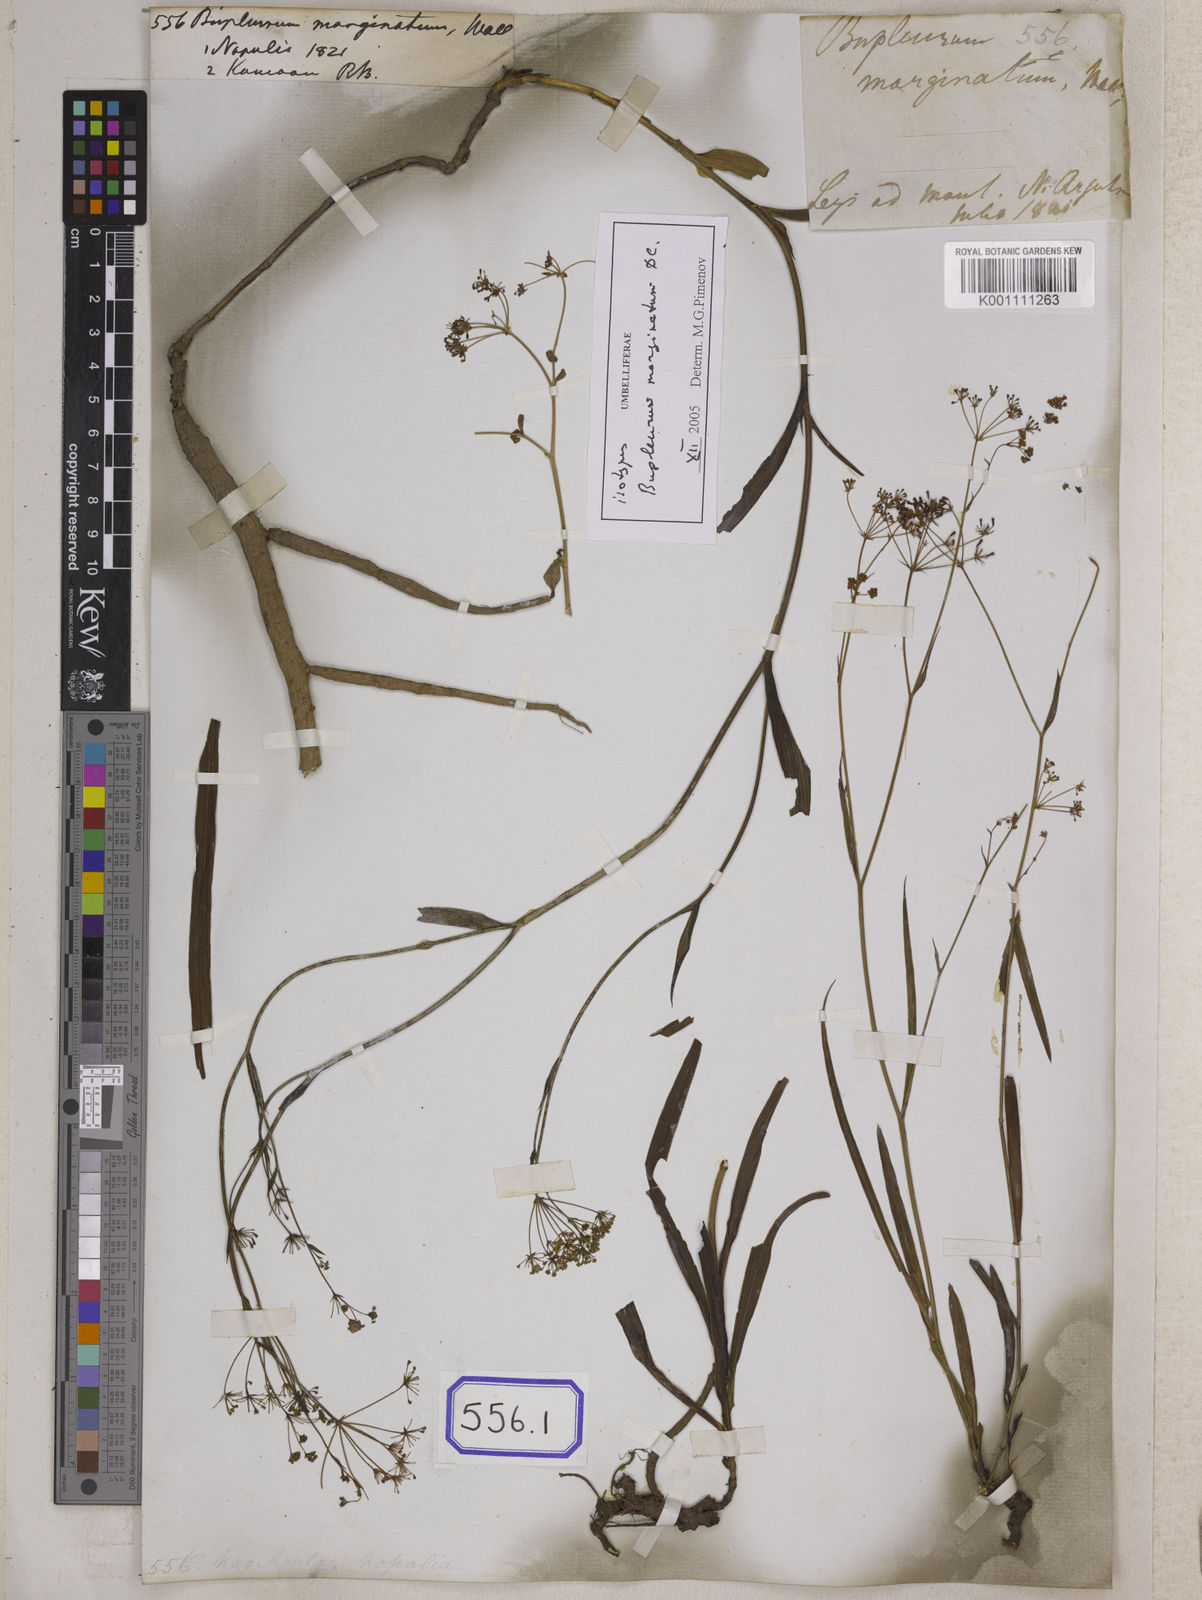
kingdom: Plantae
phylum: Tracheophyta
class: Magnoliopsida
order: Apiales
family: Apiaceae
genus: Bupleurum
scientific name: Bupleurum
